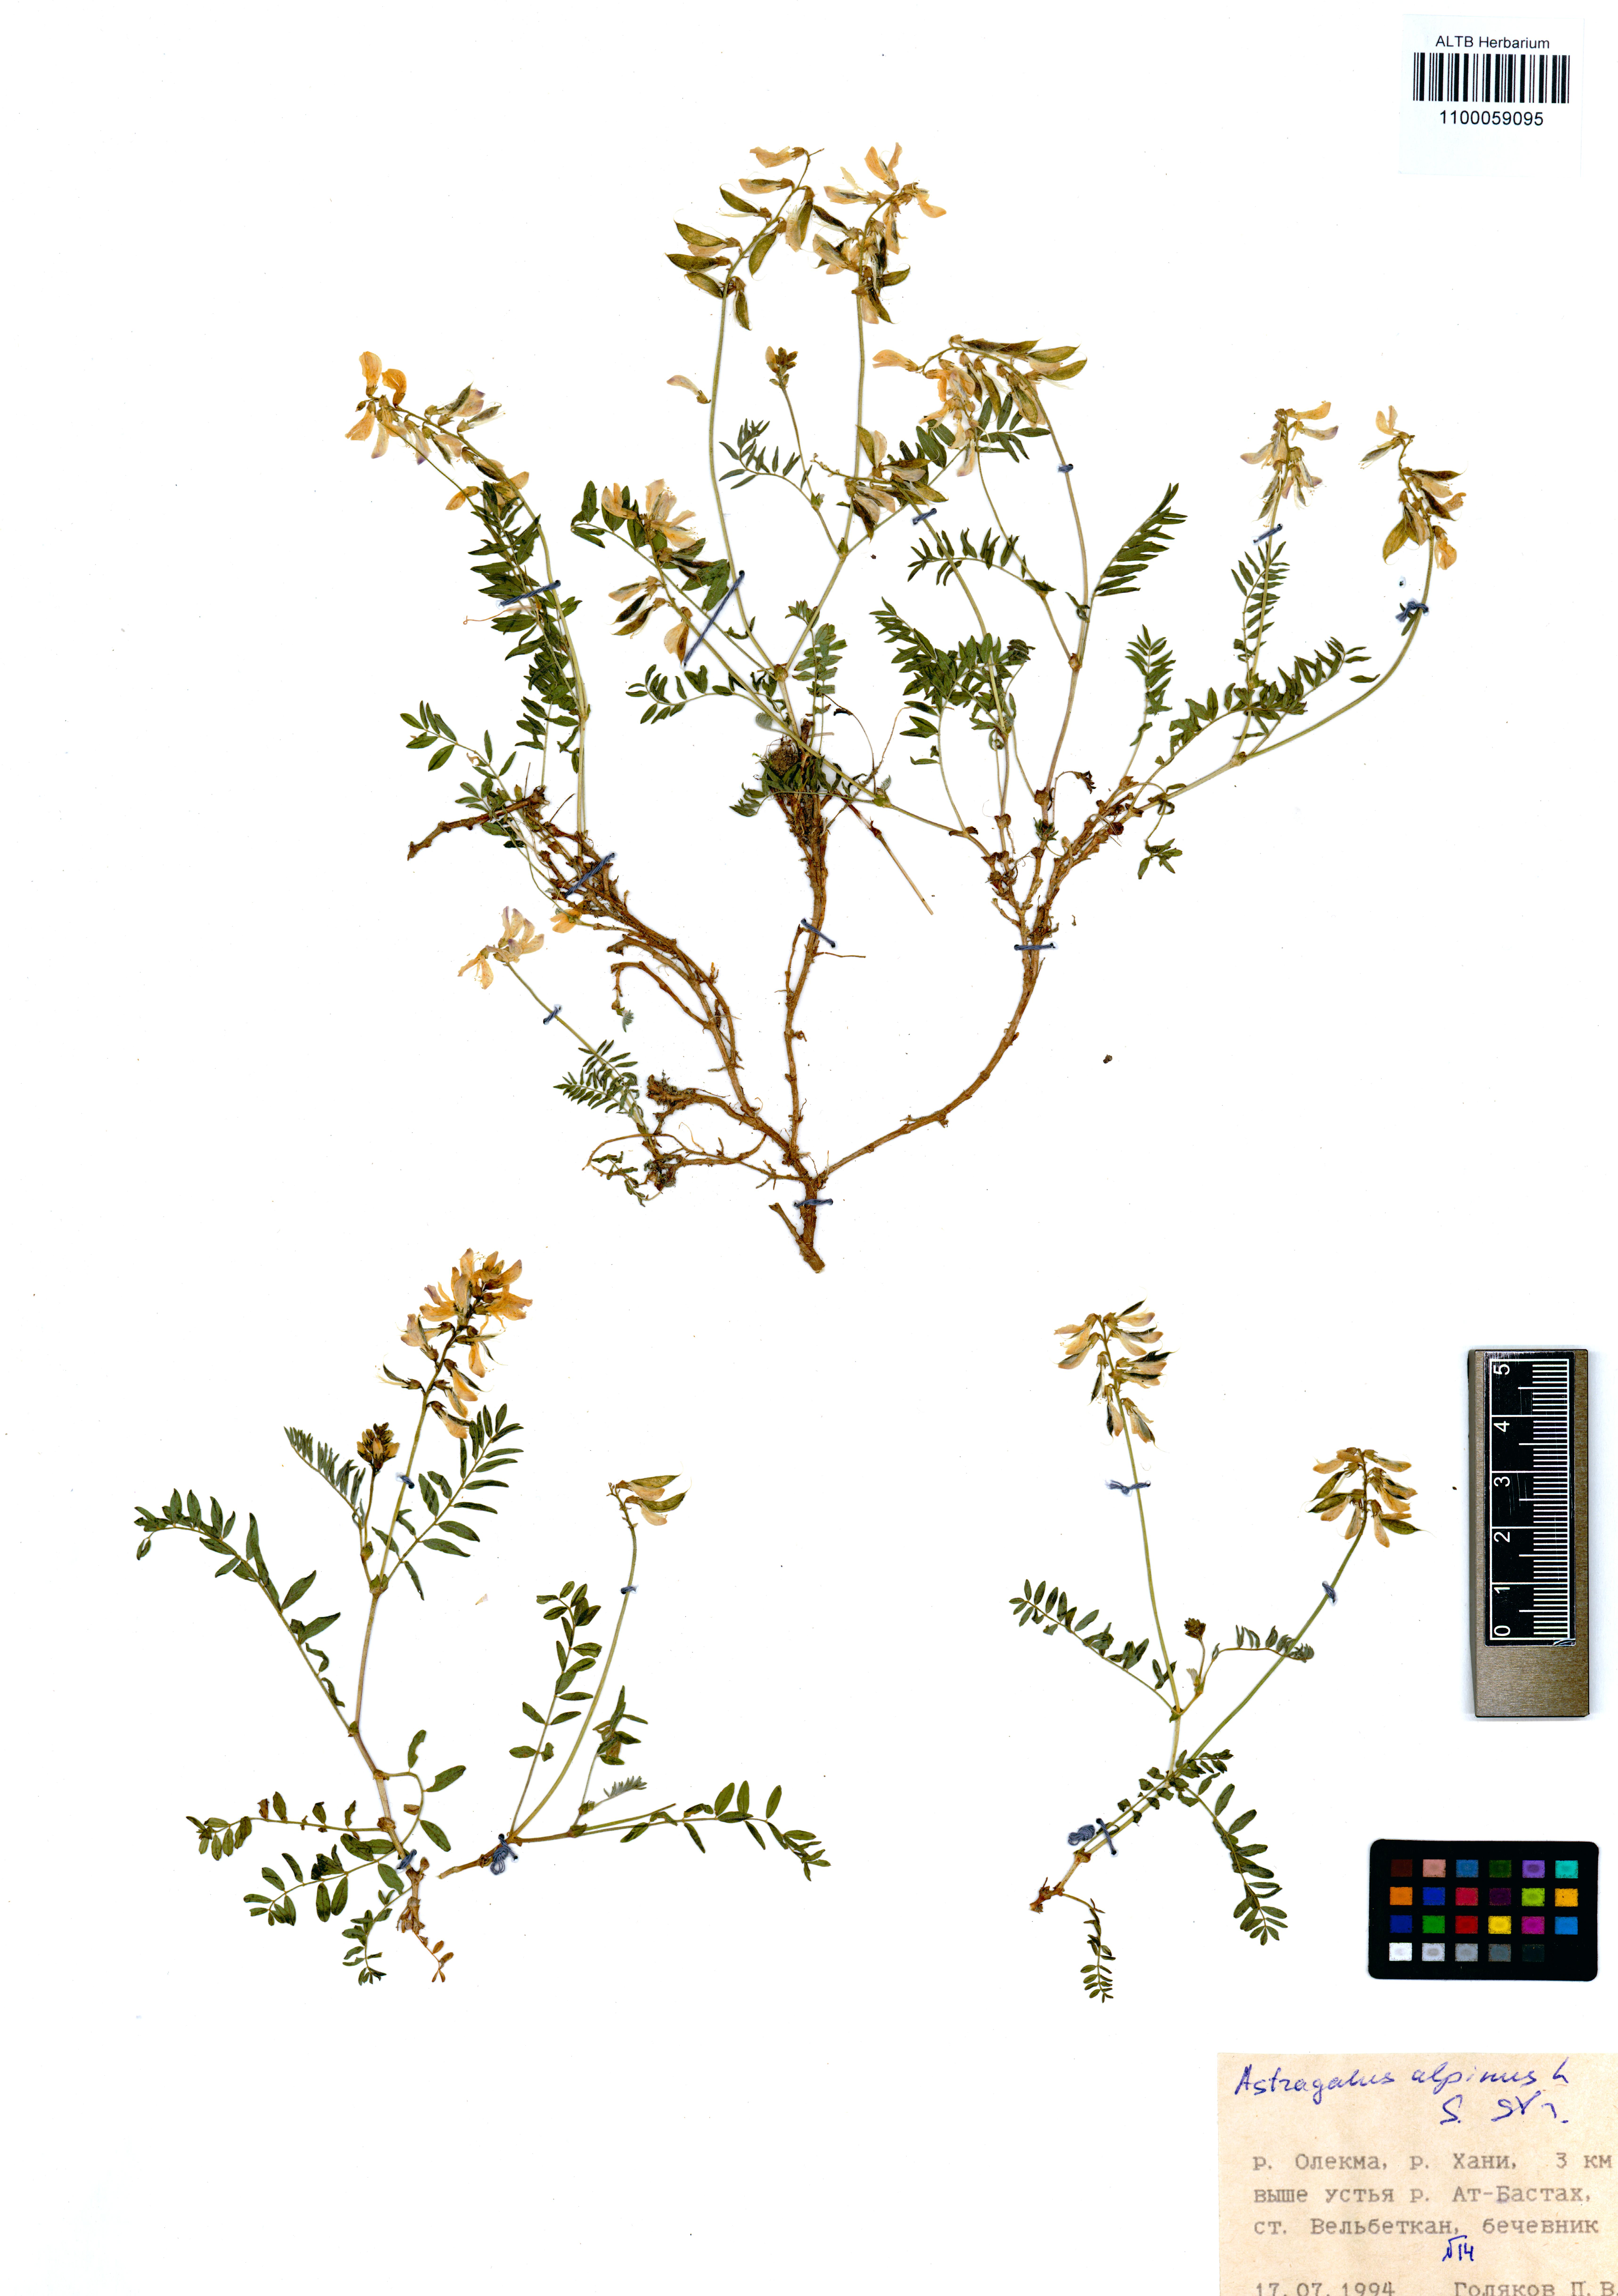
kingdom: Plantae
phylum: Tracheophyta
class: Magnoliopsida
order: Fabales
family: Fabaceae
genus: Astragalus
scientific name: Astragalus alpinus
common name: Alpine milk-vetch
